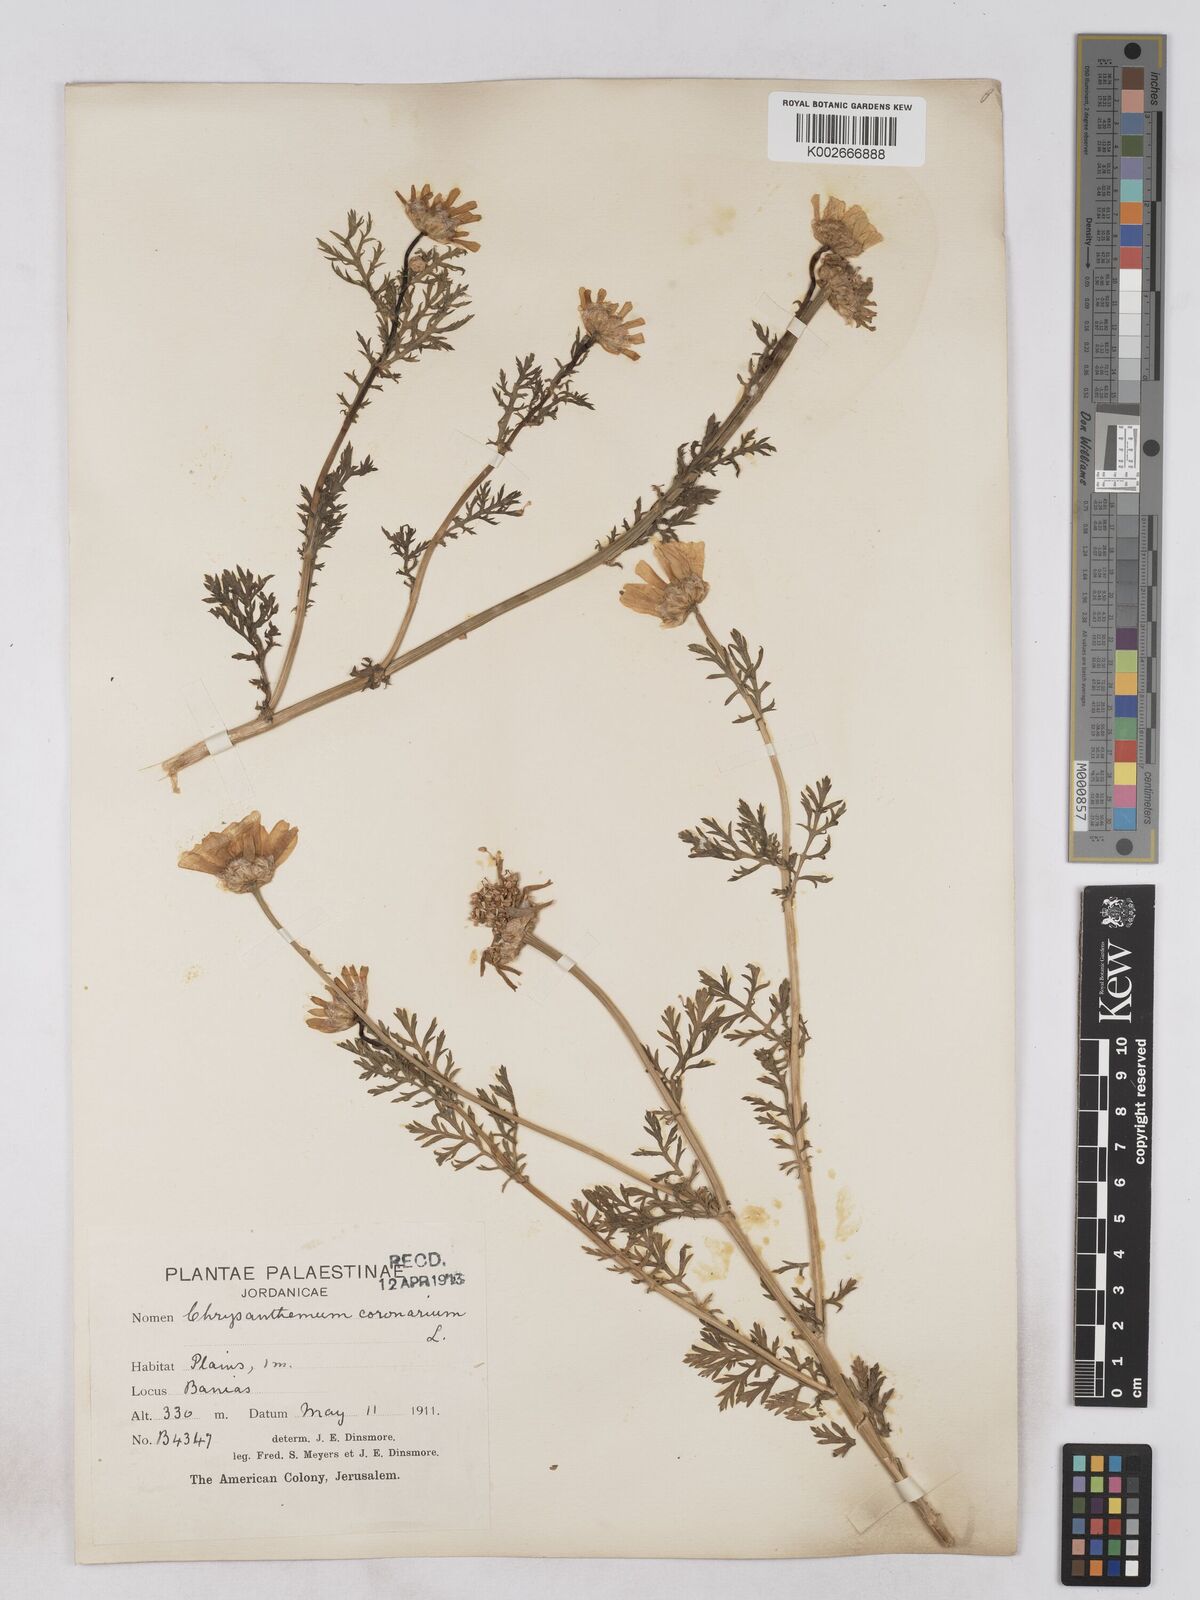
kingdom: Plantae
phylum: Tracheophyta
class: Magnoliopsida
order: Asterales
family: Asteraceae
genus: Glebionis
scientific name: Glebionis coronaria
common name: Crowndaisy
